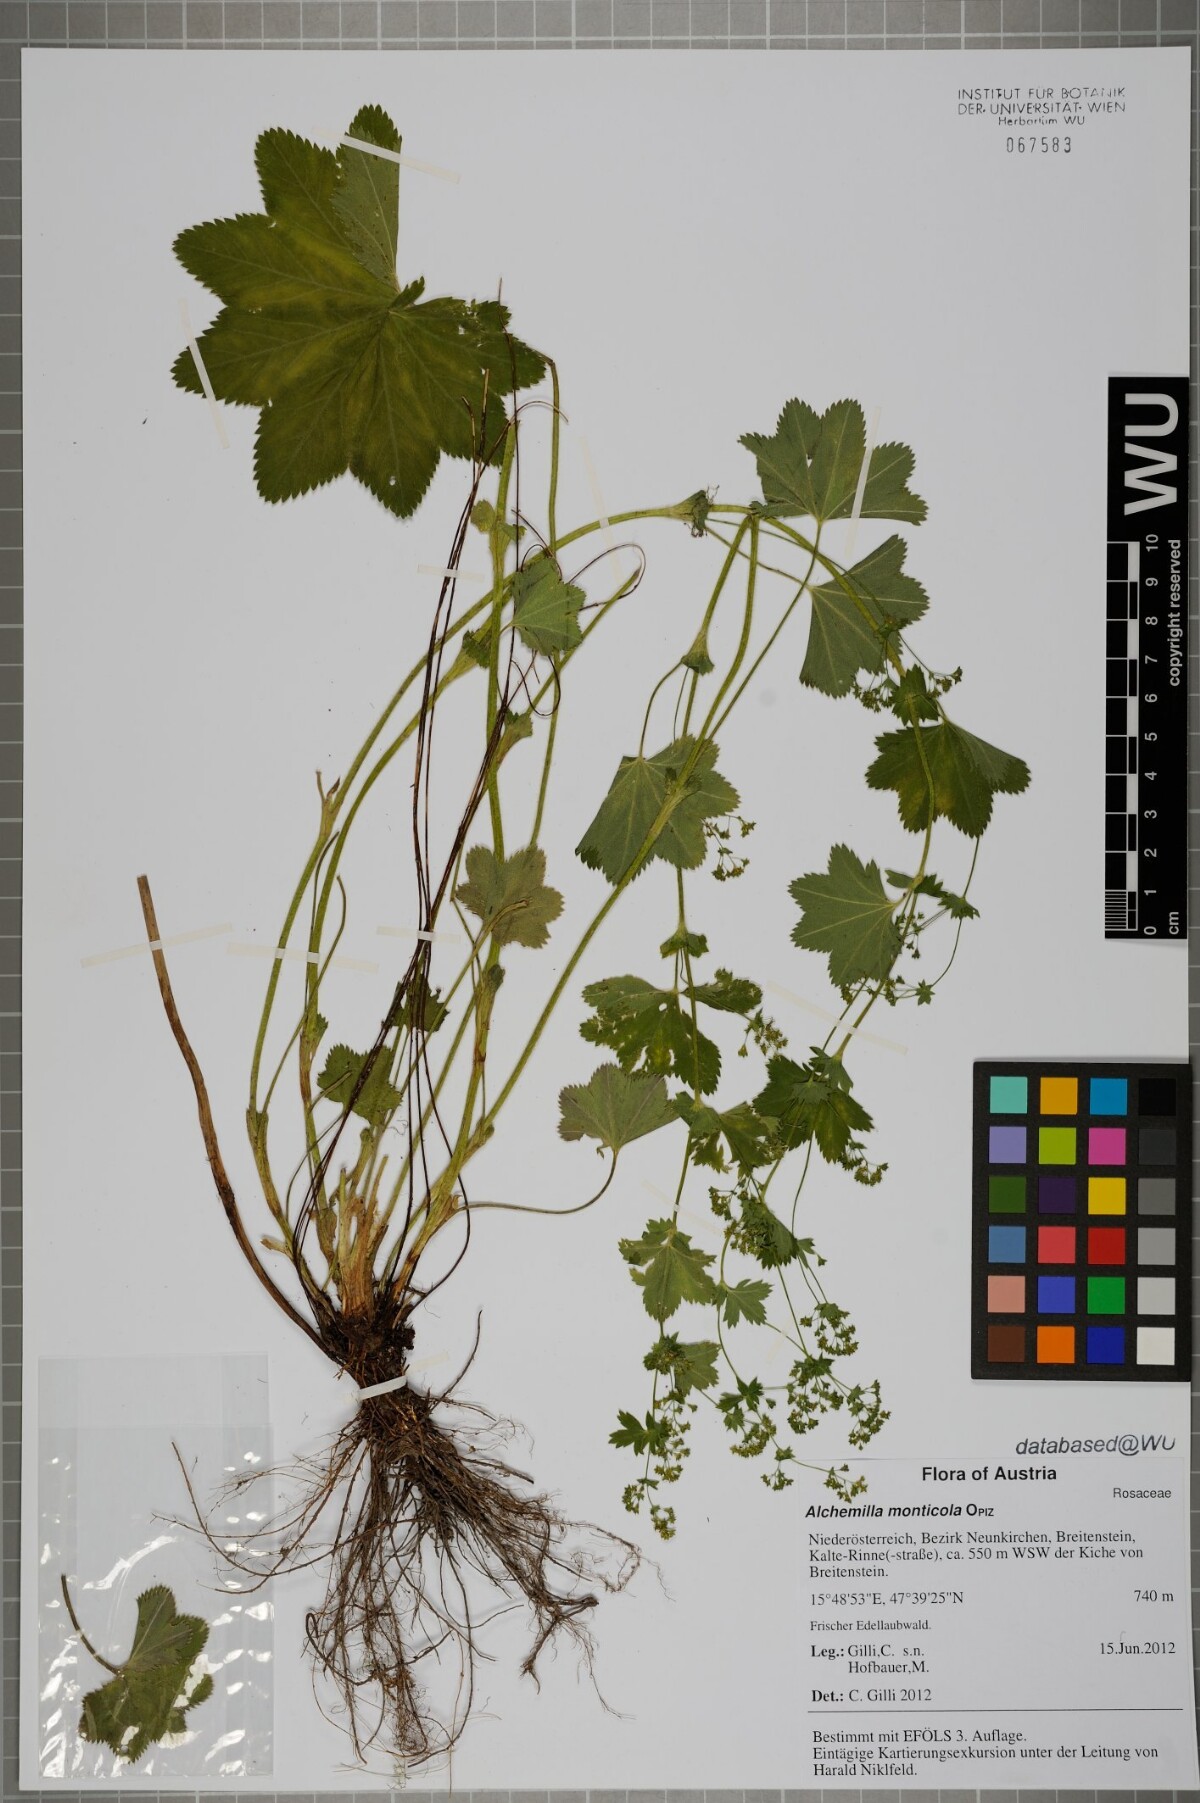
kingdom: Plantae
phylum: Tracheophyta
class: Magnoliopsida
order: Rosales
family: Rosaceae
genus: Alchemilla
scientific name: Alchemilla monticola
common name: Hairy lady's mantle
